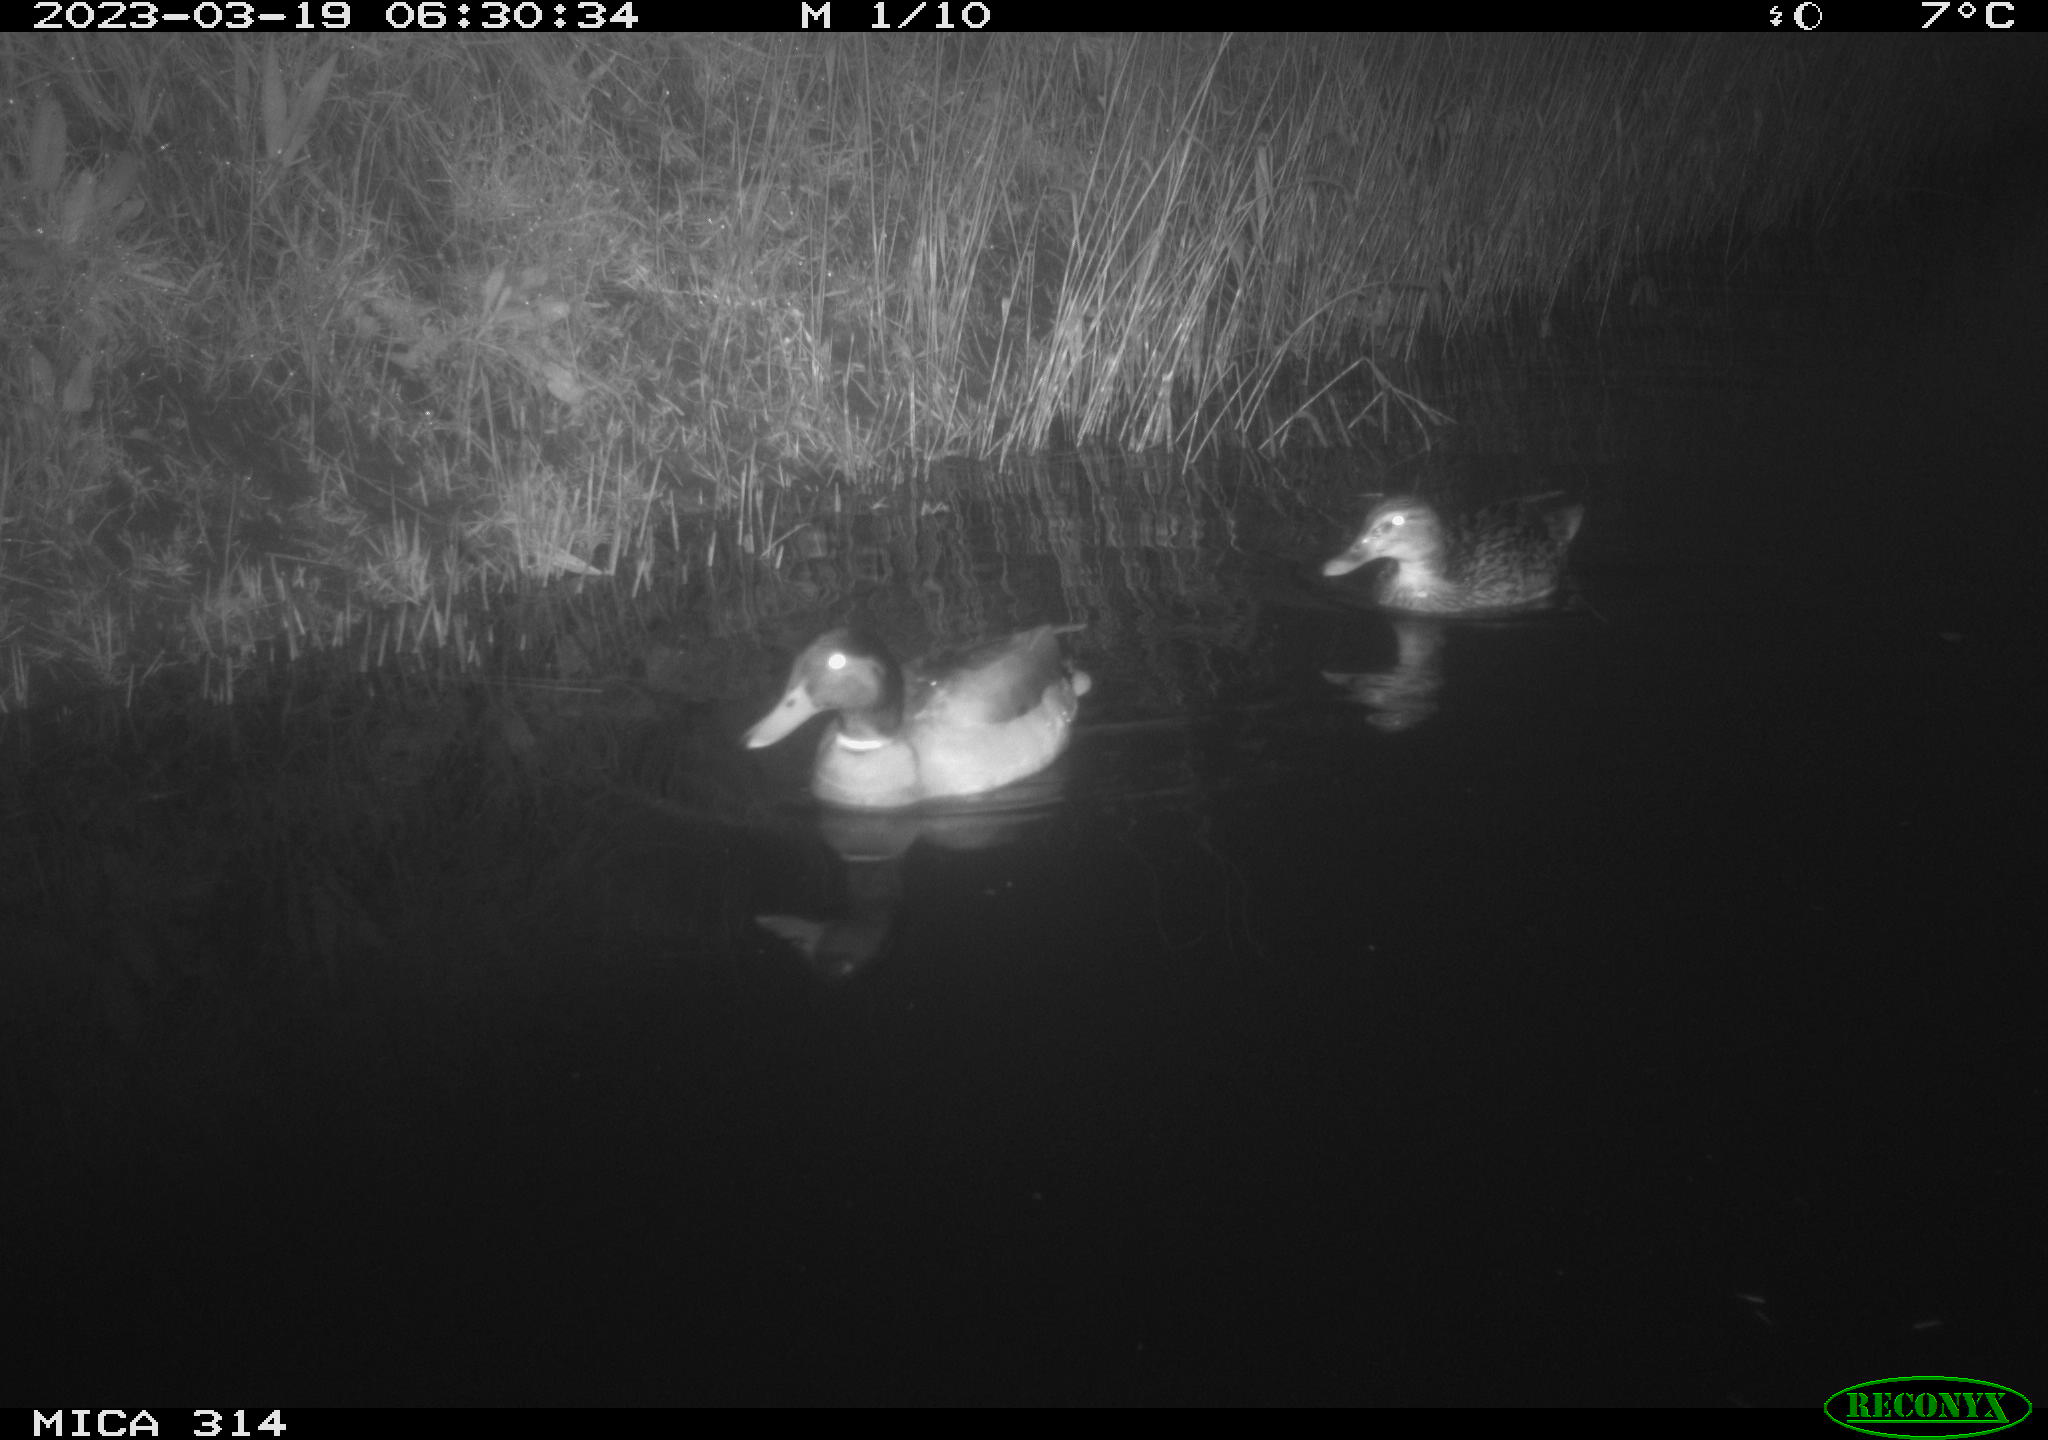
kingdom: Animalia
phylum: Chordata
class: Aves
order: Anseriformes
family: Anatidae
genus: Anas
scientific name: Anas
